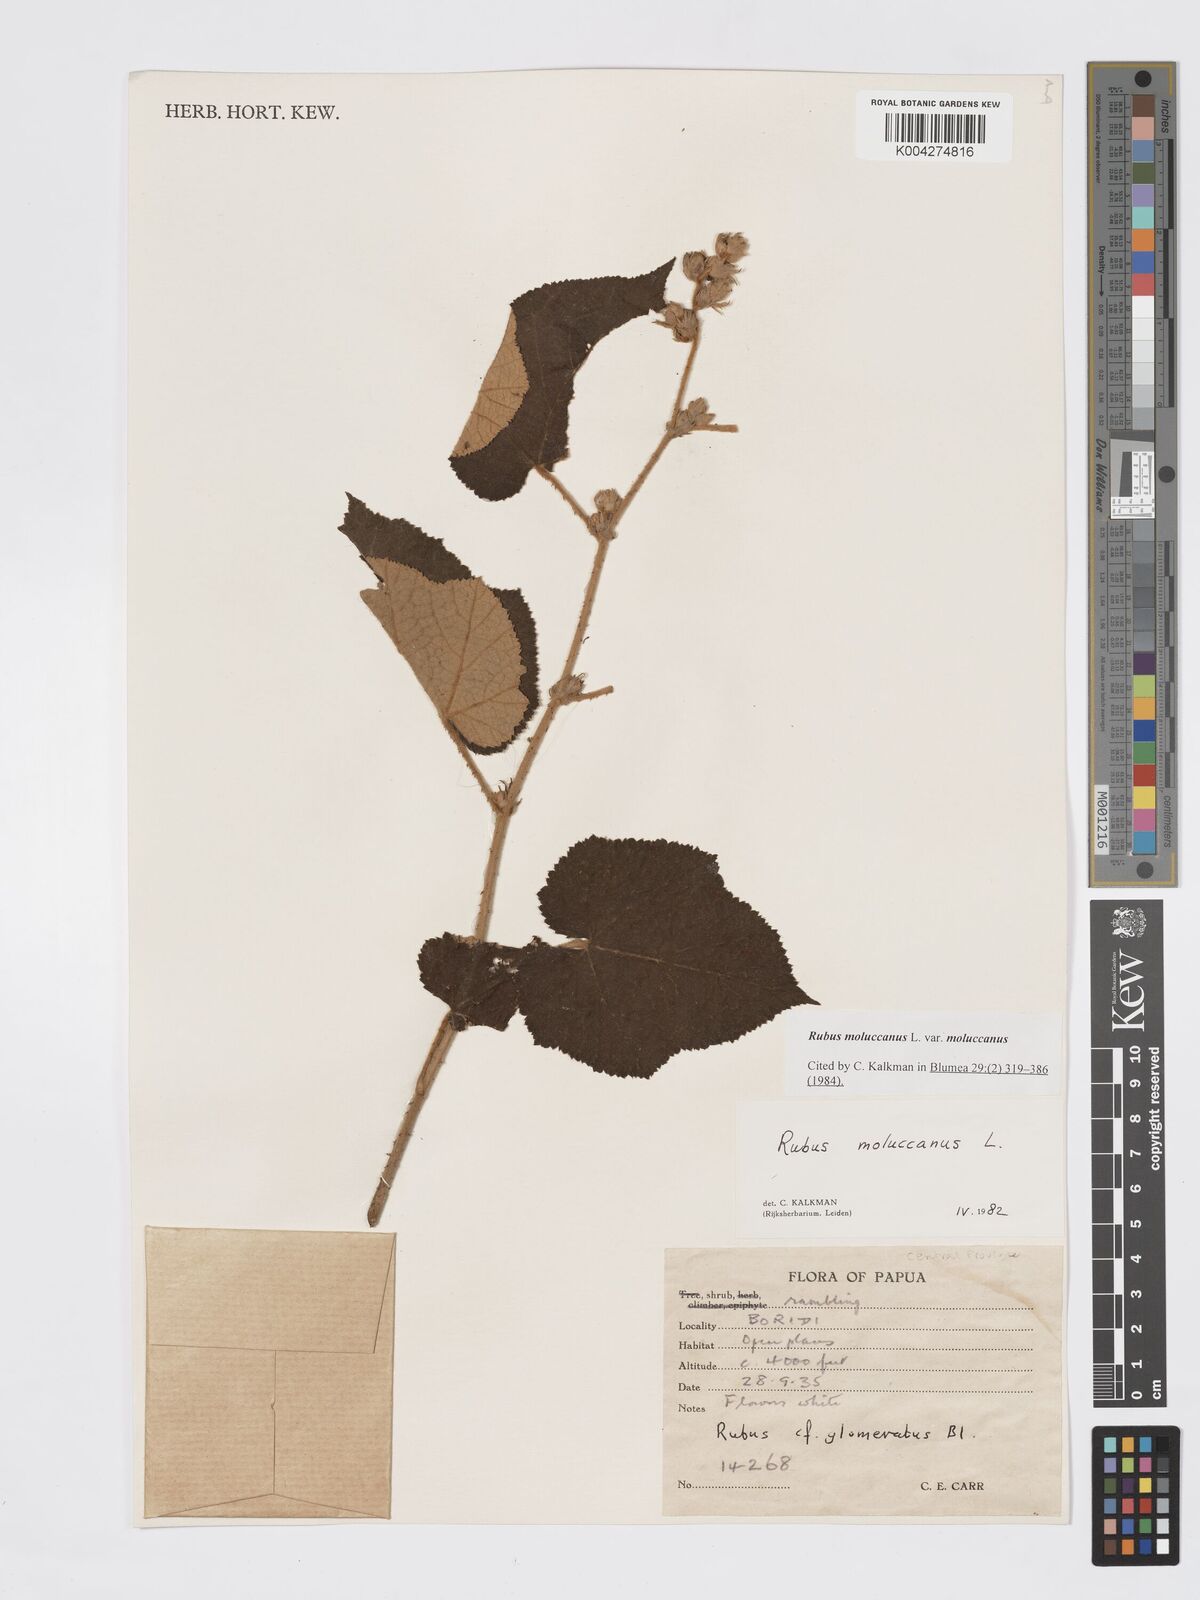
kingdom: Plantae
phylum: Tracheophyta
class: Magnoliopsida
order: Rosales
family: Rosaceae
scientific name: Rosaceae
